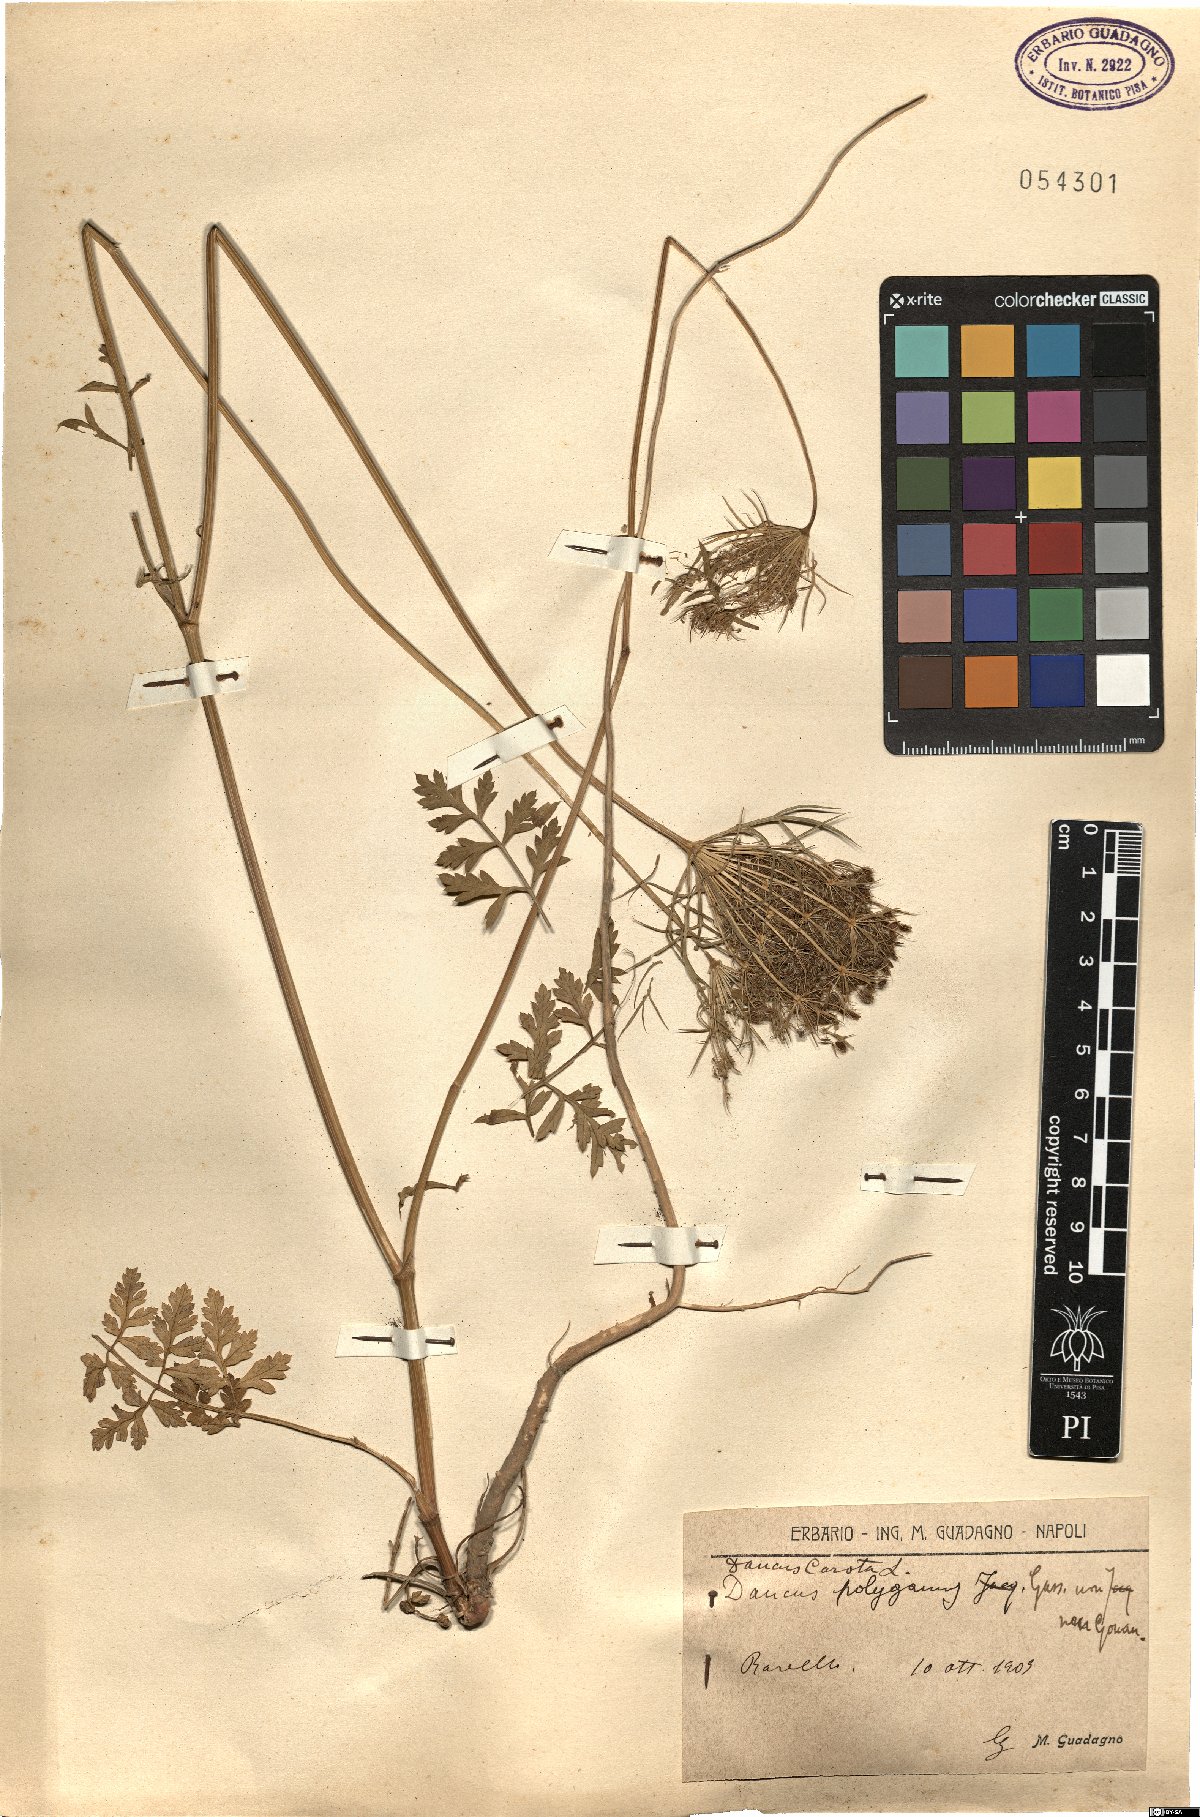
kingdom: Plantae
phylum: Tracheophyta
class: Magnoliopsida
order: Apiales
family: Apiaceae
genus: Daucus
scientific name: Daucus carota
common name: Wild carrot
